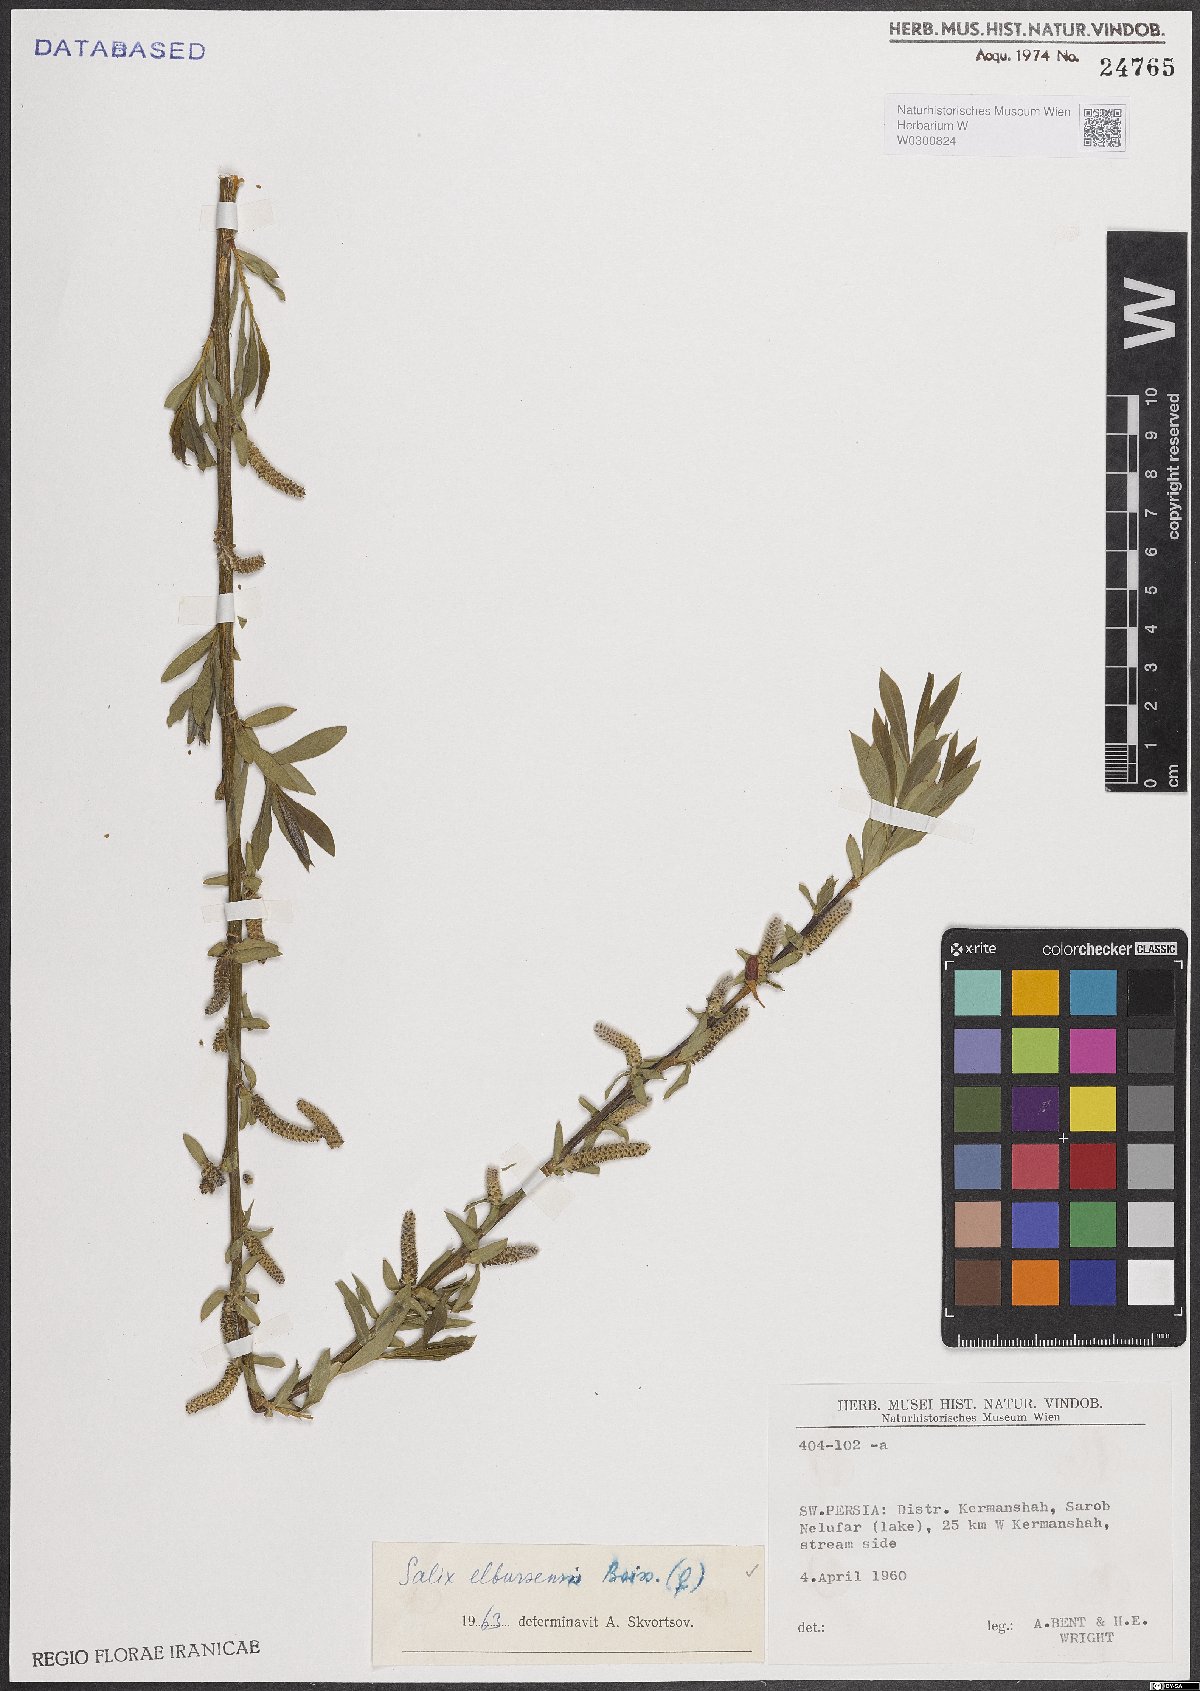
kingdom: Plantae
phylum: Tracheophyta
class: Magnoliopsida
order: Malpighiales
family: Salicaceae
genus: Salix
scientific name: Salix elbursensis
